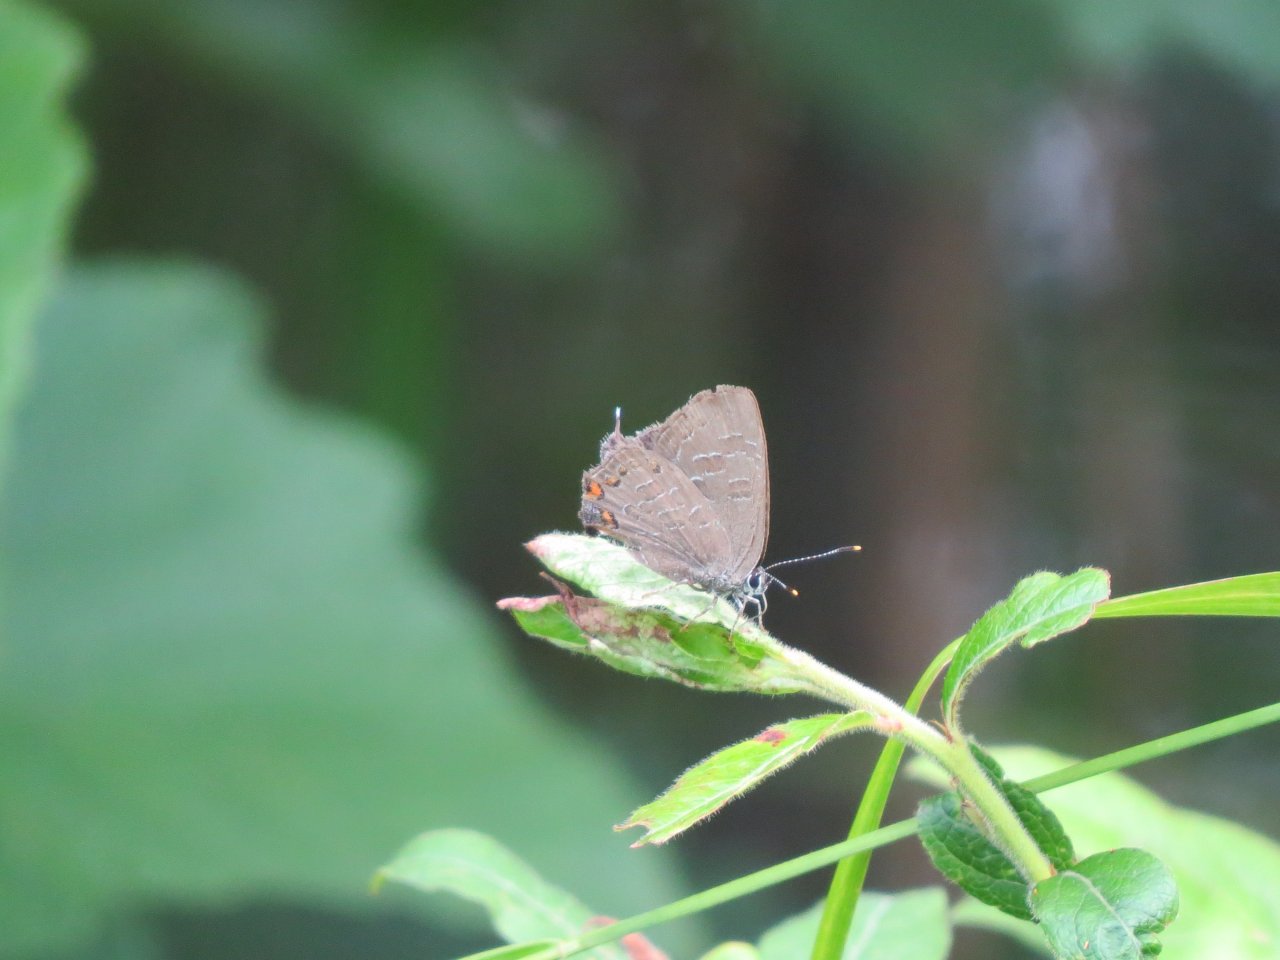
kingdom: Animalia
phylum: Arthropoda
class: Insecta
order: Lepidoptera
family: Lycaenidae
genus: Satyrium
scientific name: Satyrium liparops
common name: Striped Hairstreak
